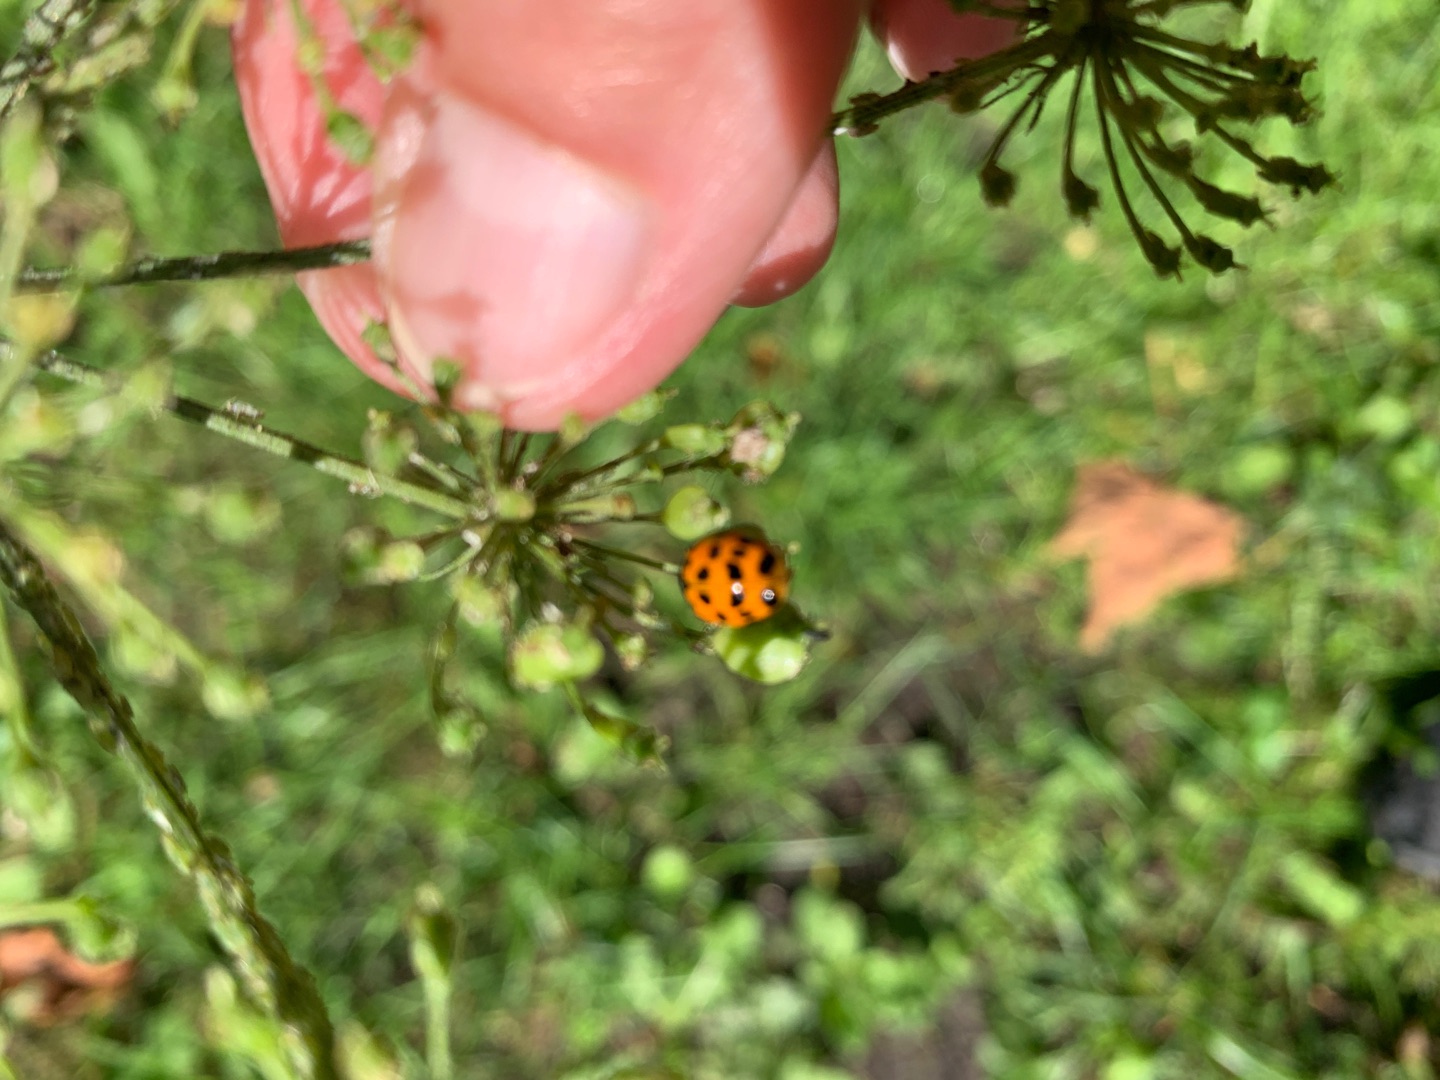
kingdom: Animalia
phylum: Arthropoda
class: Insecta
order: Coleoptera
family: Coccinellidae
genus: Harmonia
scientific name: Harmonia axyridis
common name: Harlekinmariehøne
